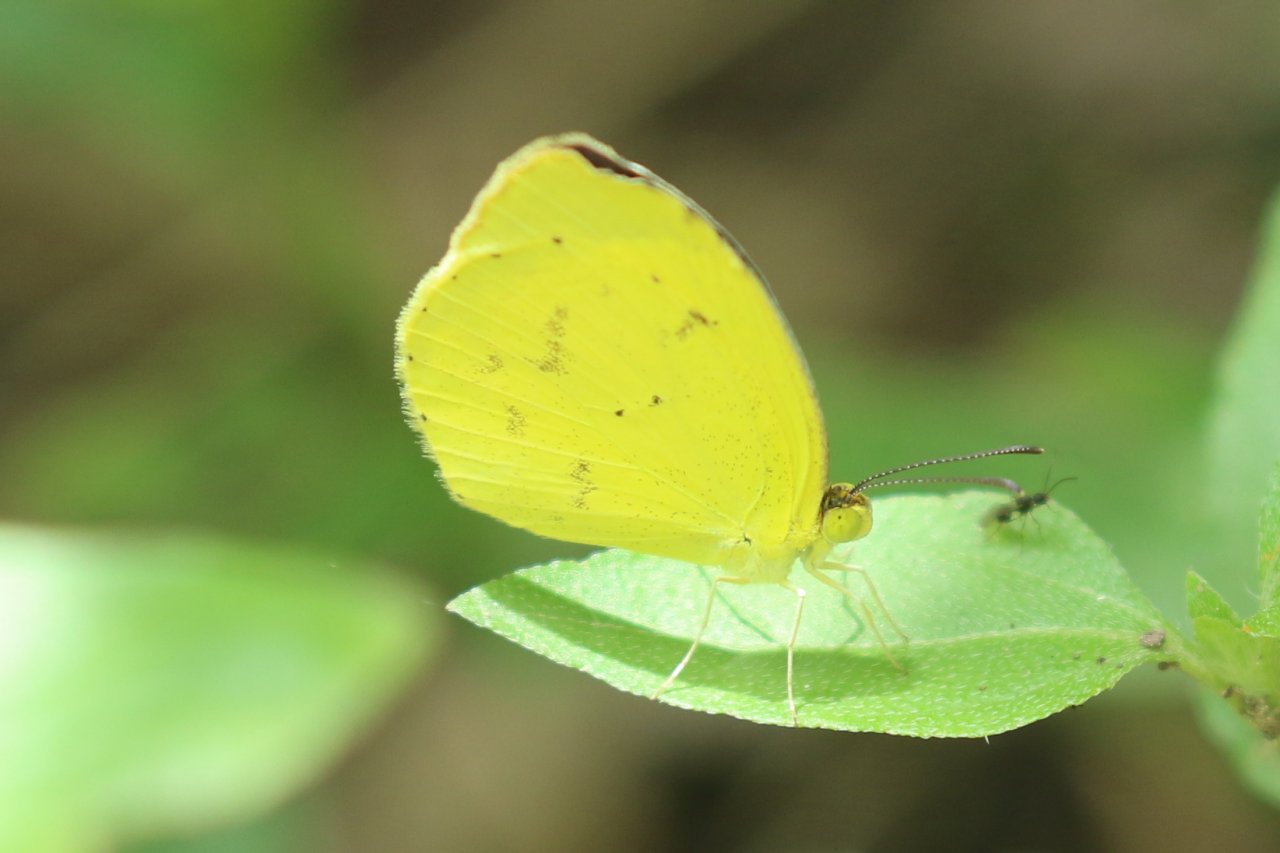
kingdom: Animalia
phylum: Arthropoda
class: Insecta
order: Lepidoptera
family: Pieridae
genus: Pyrisitia
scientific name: Pyrisitia nise
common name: Mimosa Yellow
